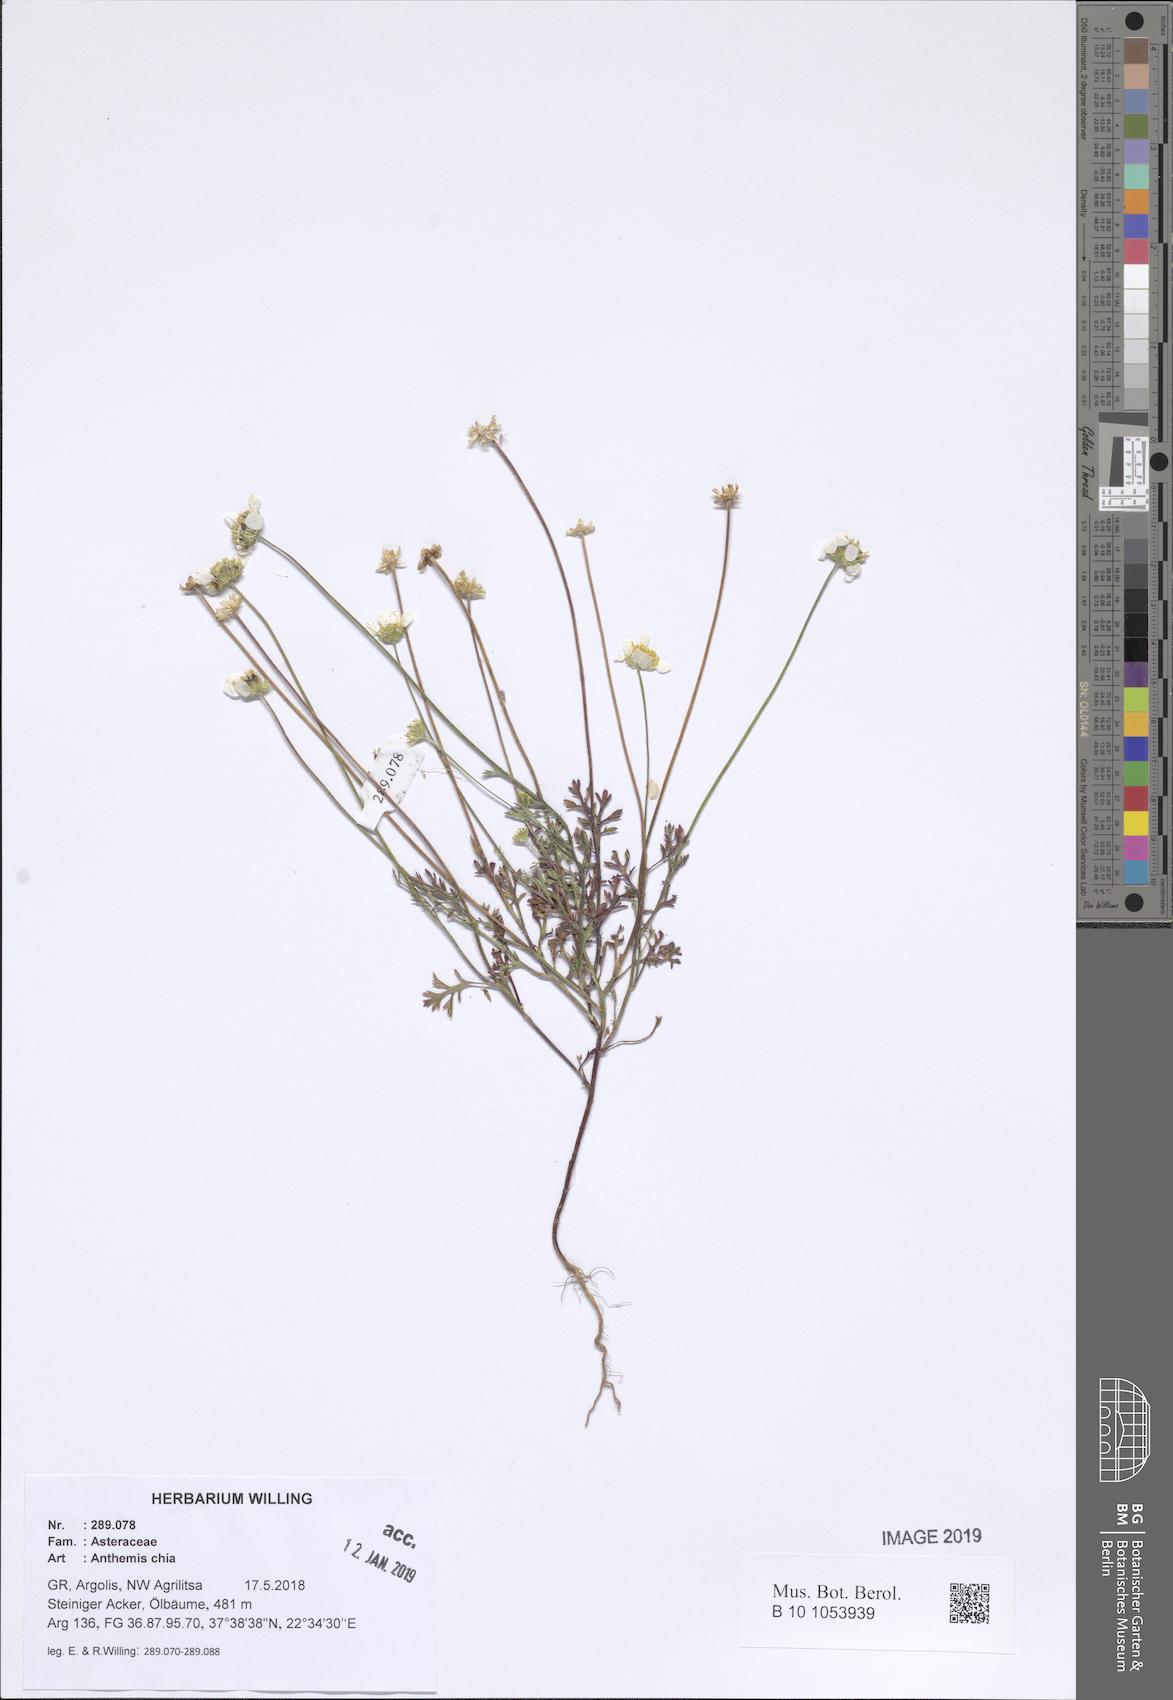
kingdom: Plantae
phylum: Tracheophyta
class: Magnoliopsida
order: Asterales
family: Asteraceae
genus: Anthemis
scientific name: Anthemis chia
